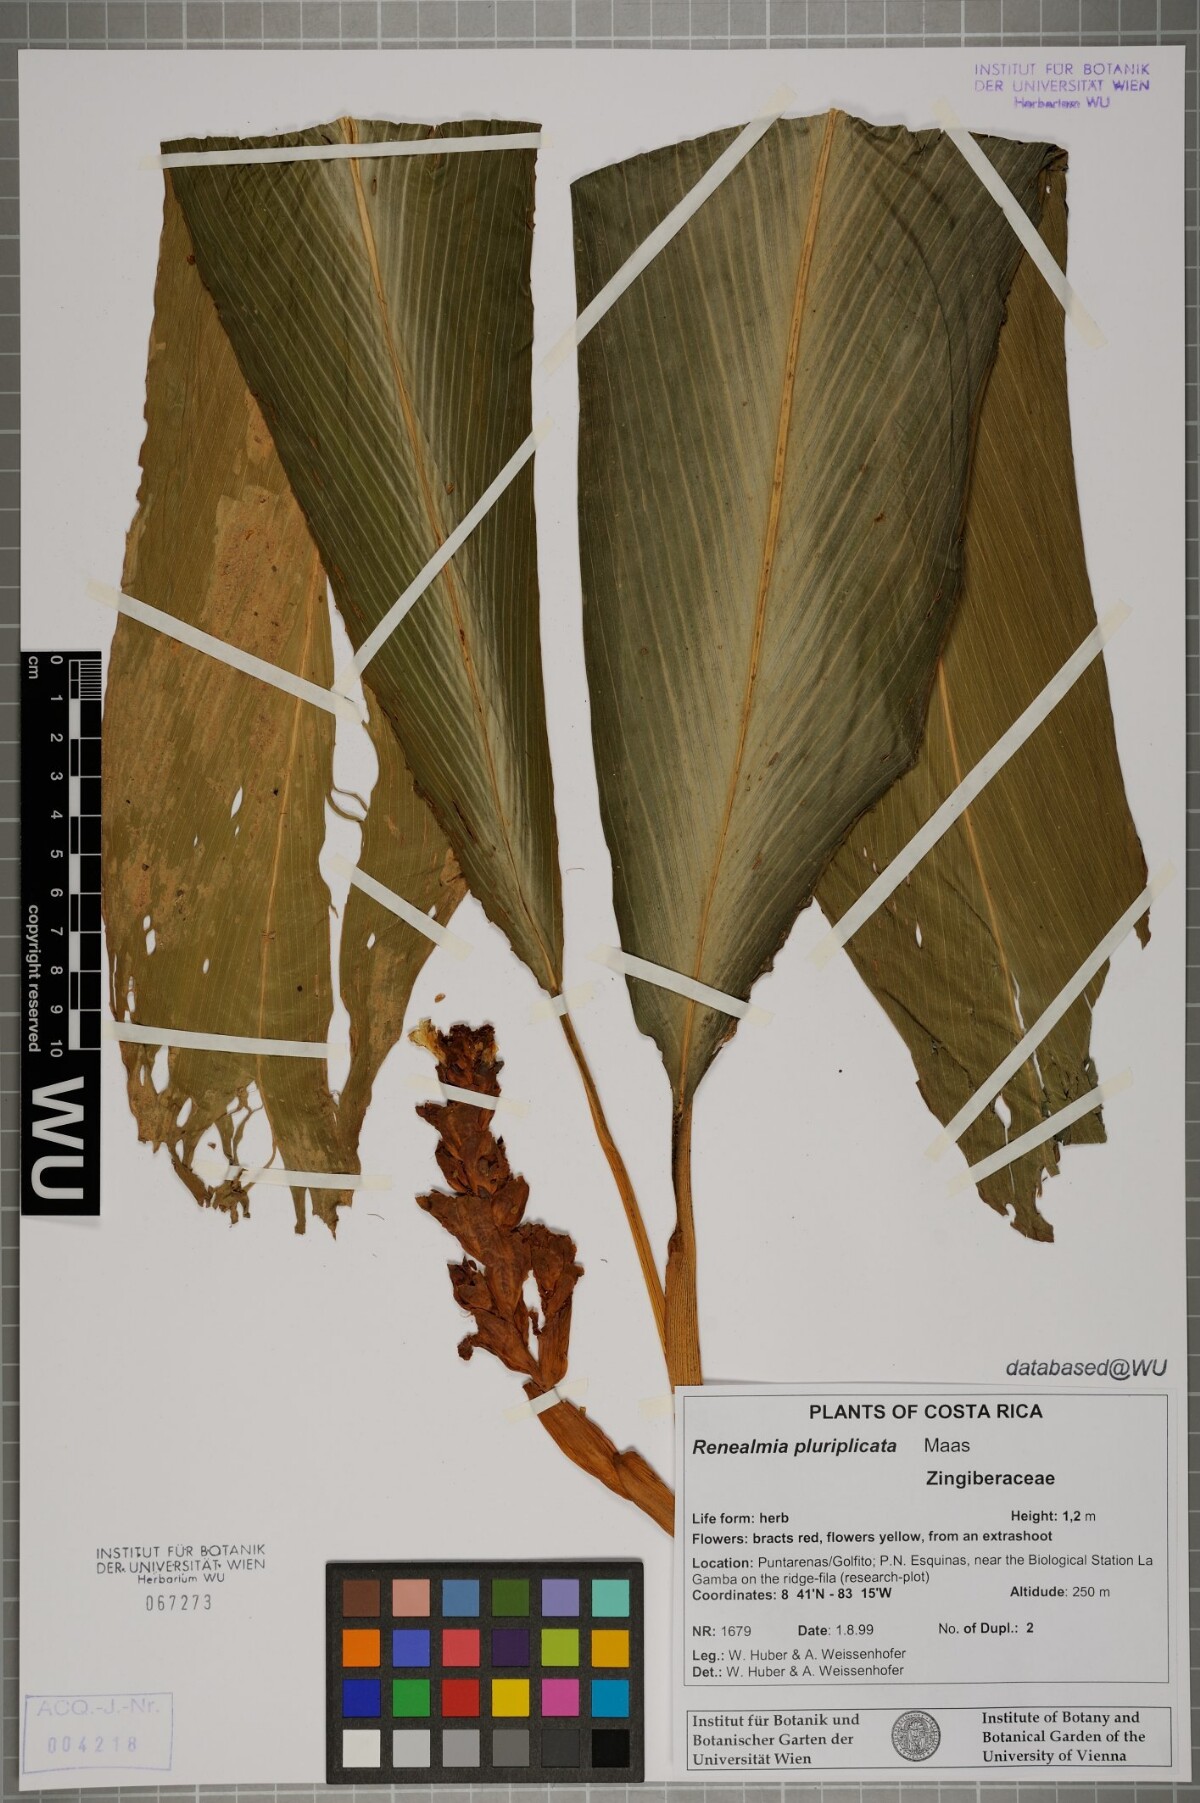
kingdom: Plantae
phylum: Tracheophyta
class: Liliopsida
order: Zingiberales
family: Zingiberaceae
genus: Renealmia
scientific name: Renealmia pluriplicata
